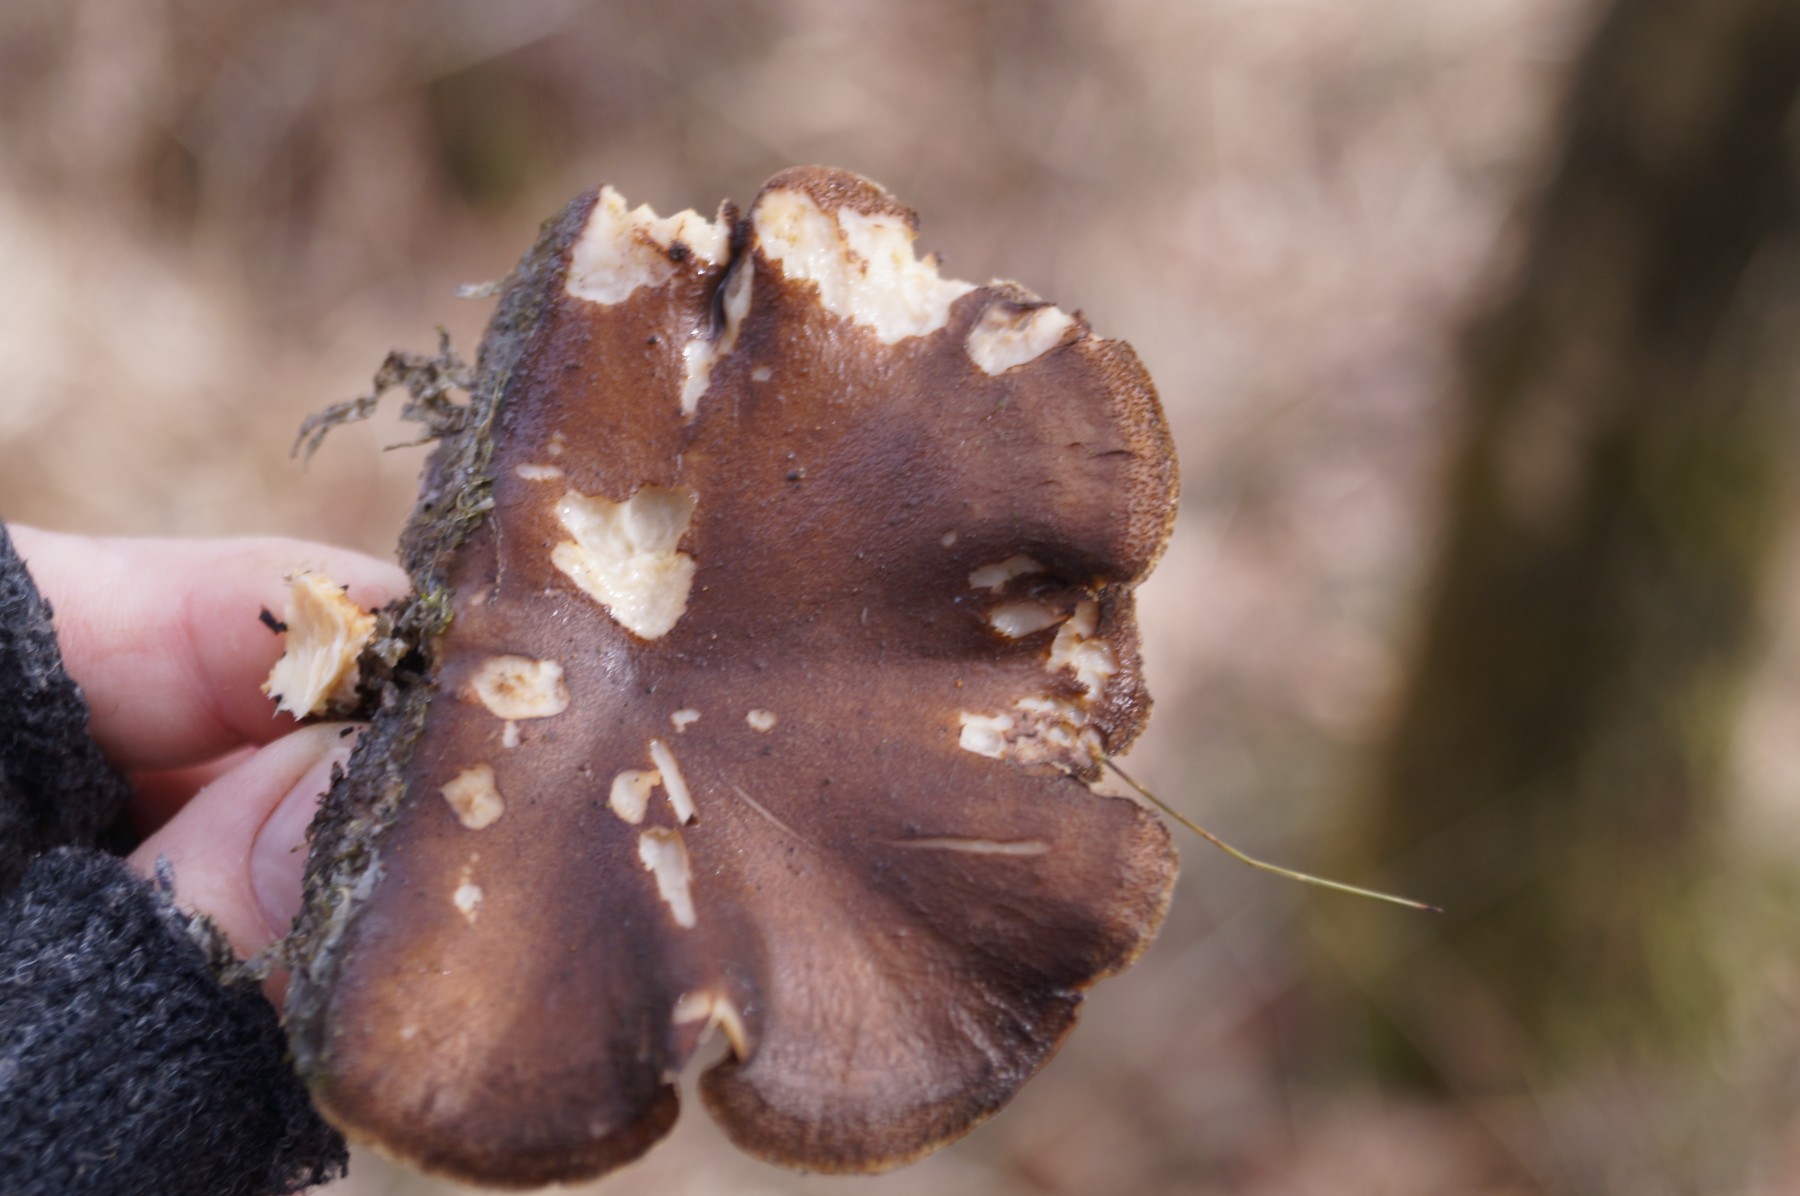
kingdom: Fungi
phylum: Basidiomycota
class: Agaricomycetes
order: Polyporales
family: Polyporaceae
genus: Lentinus
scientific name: Lentinus brumalis
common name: vinter-stilkporesvamp
